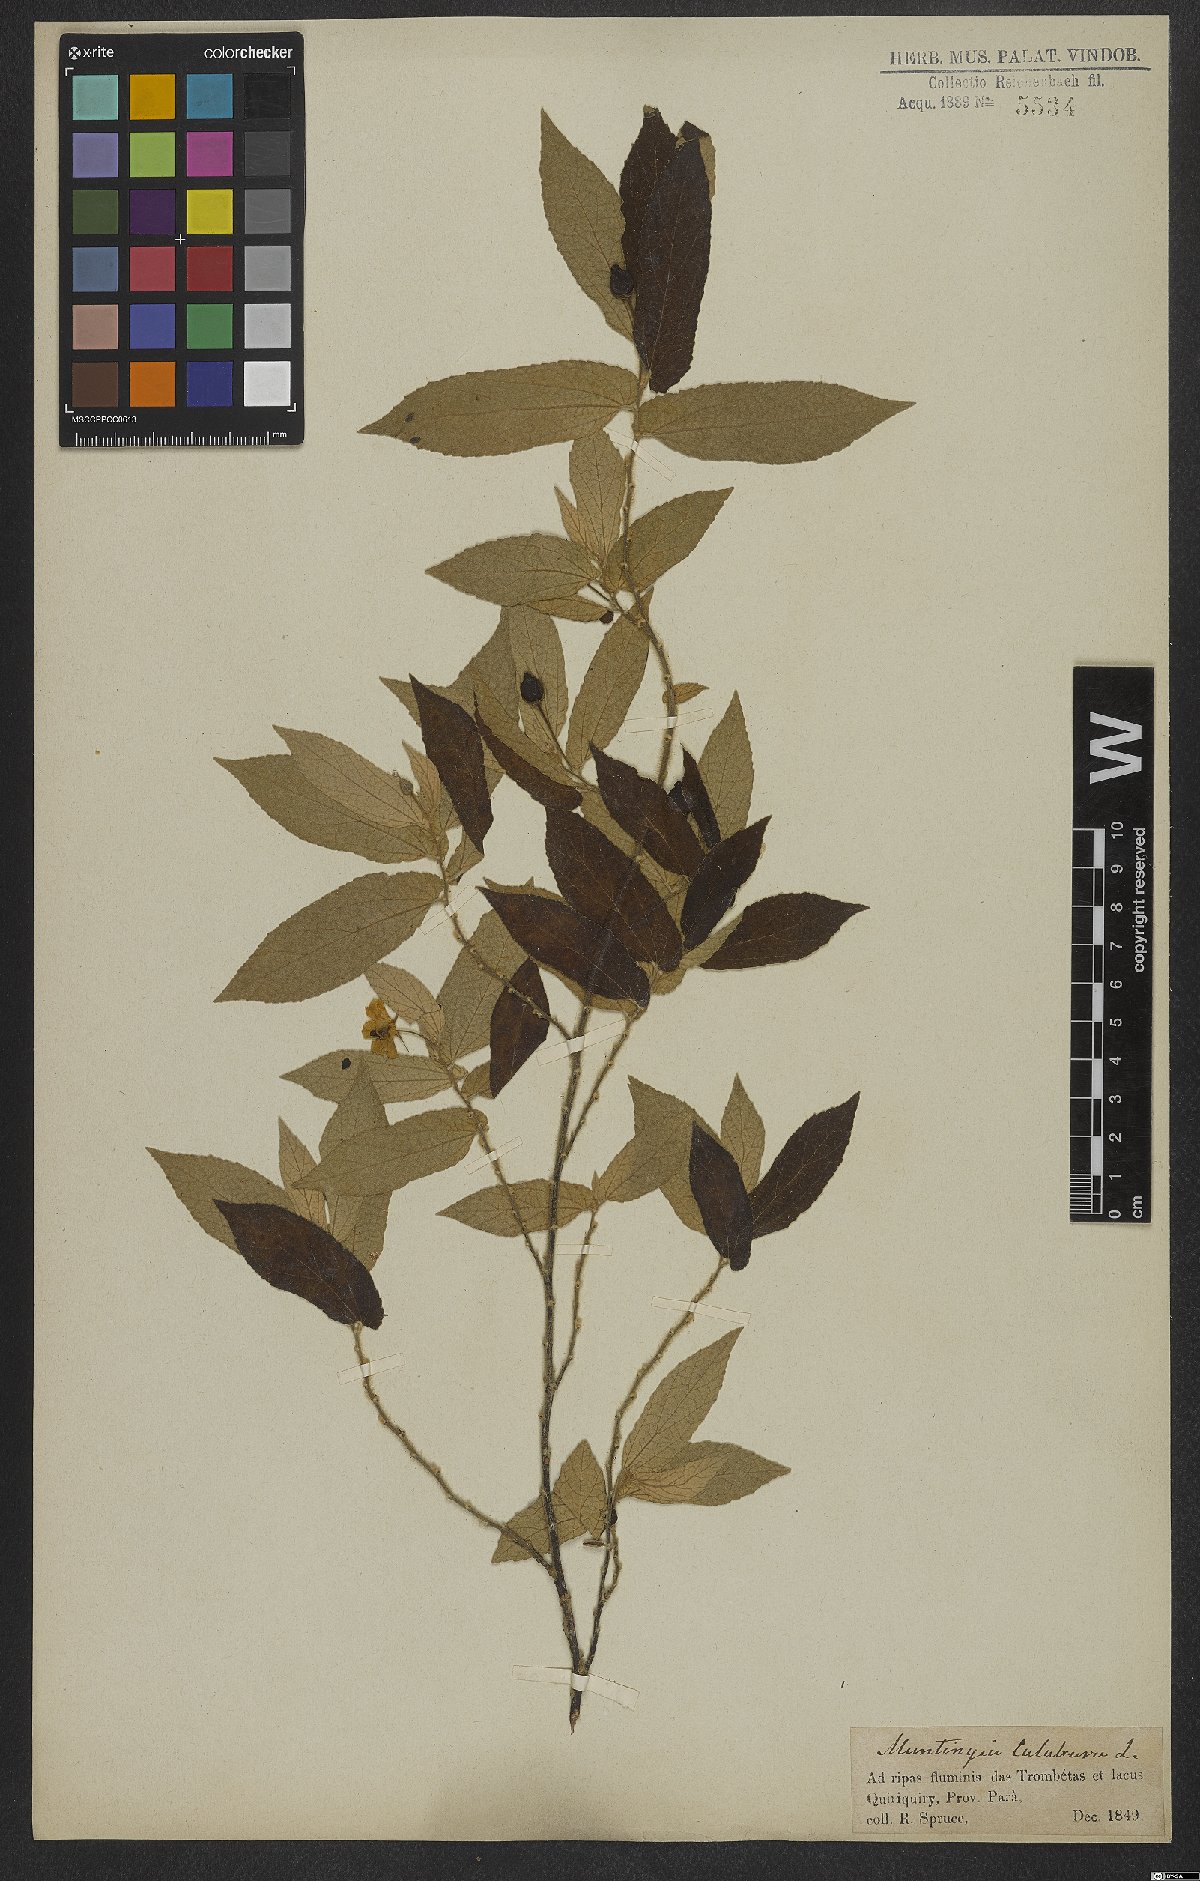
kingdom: Plantae
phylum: Tracheophyta
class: Magnoliopsida
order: Malvales
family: Muntingiaceae
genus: Muntingia
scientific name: Muntingia calabura
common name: Strawberrytree
